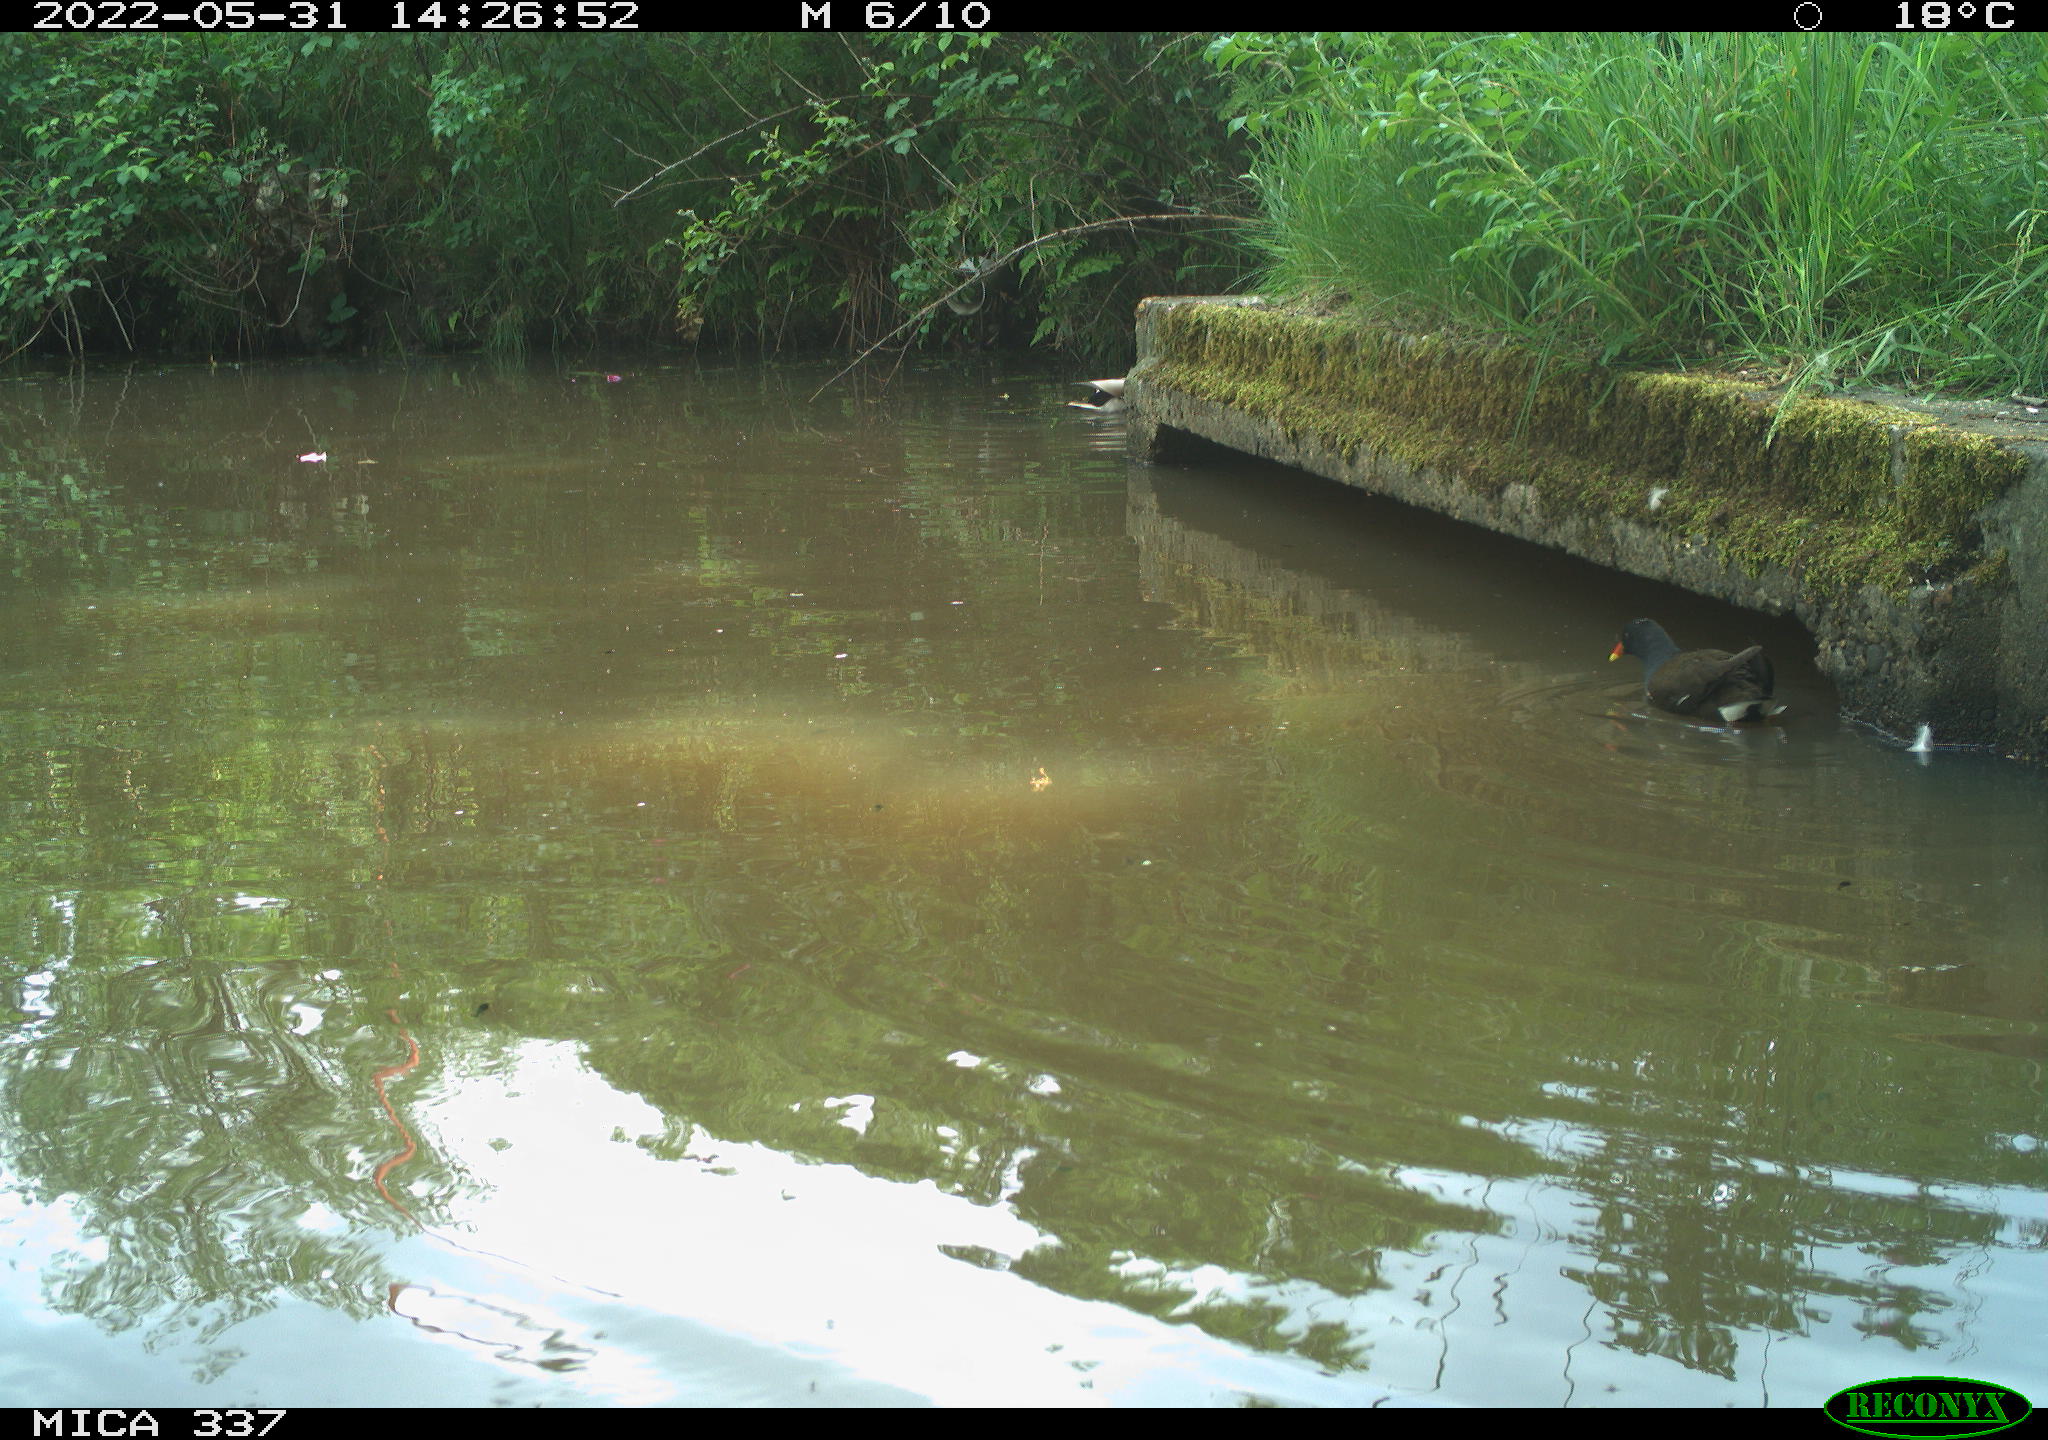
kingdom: Animalia
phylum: Chordata
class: Aves
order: Gruiformes
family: Rallidae
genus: Gallinula
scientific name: Gallinula chloropus
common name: Common moorhen
